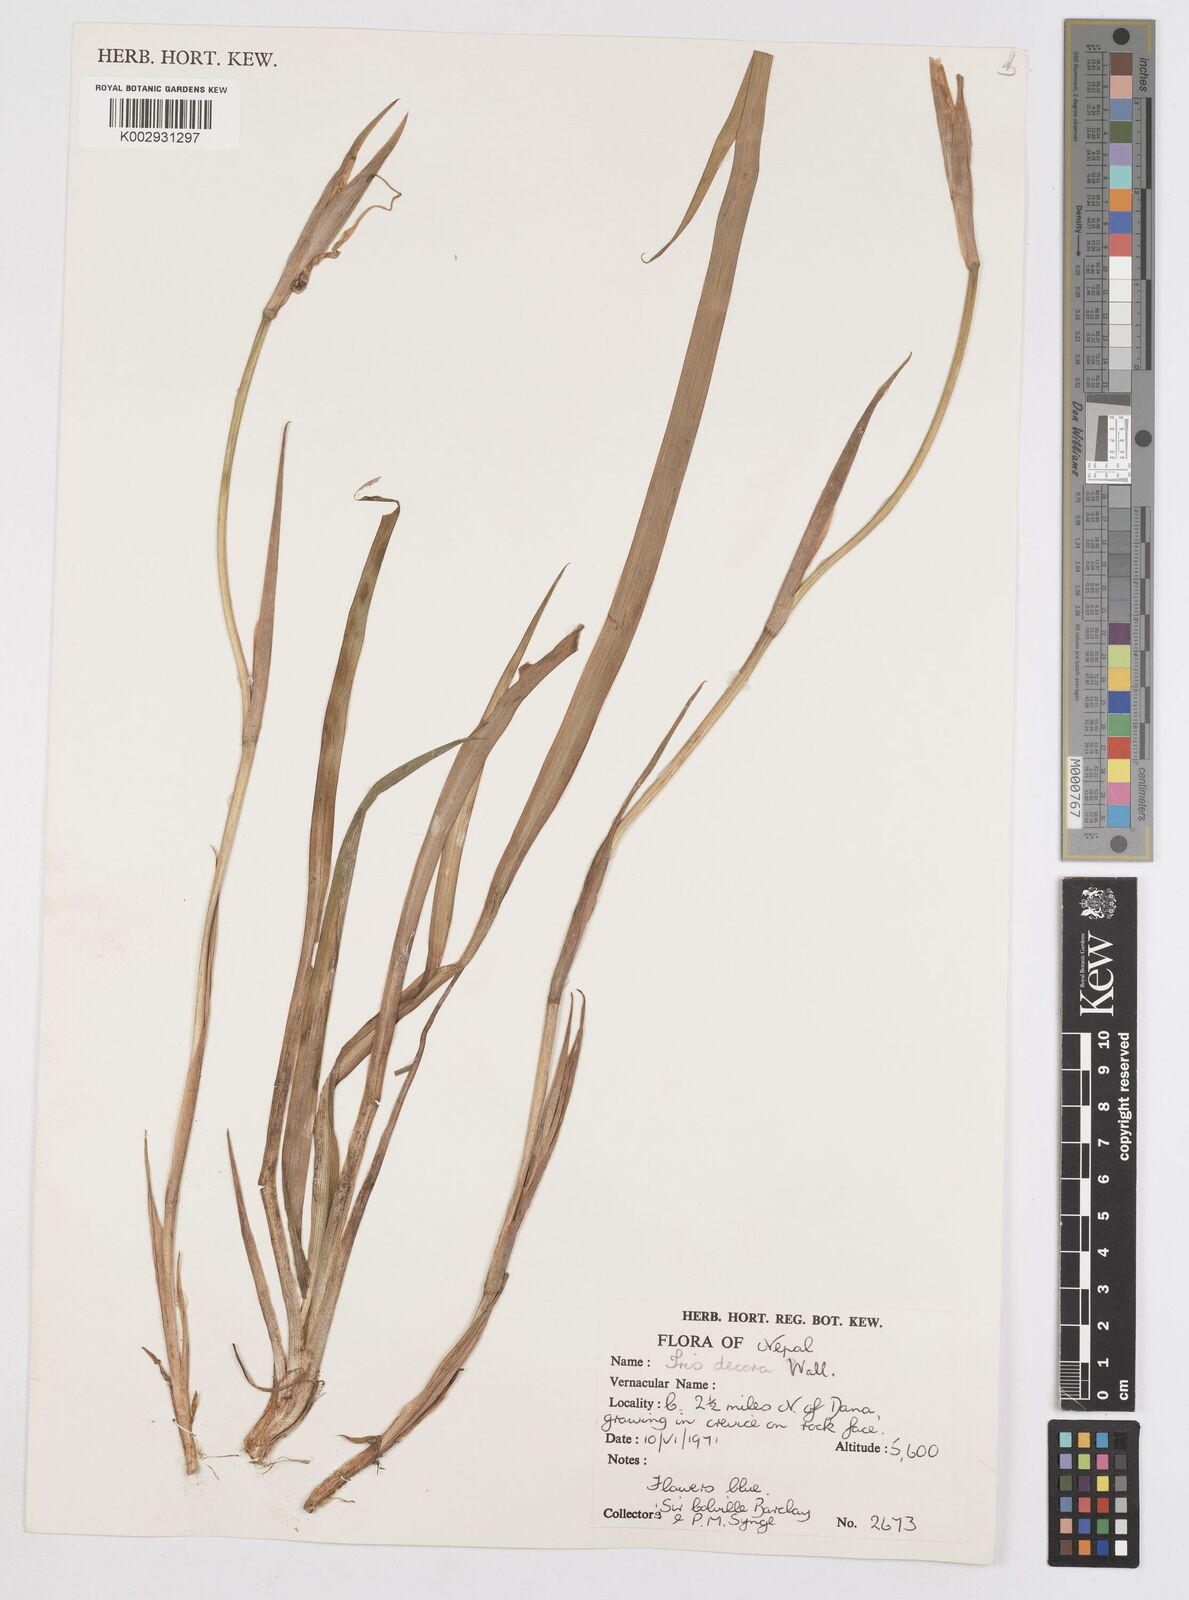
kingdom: Plantae
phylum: Tracheophyta
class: Liliopsida
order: Asparagales
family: Iridaceae
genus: Iris
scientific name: Iris decora
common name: Nepal iris
